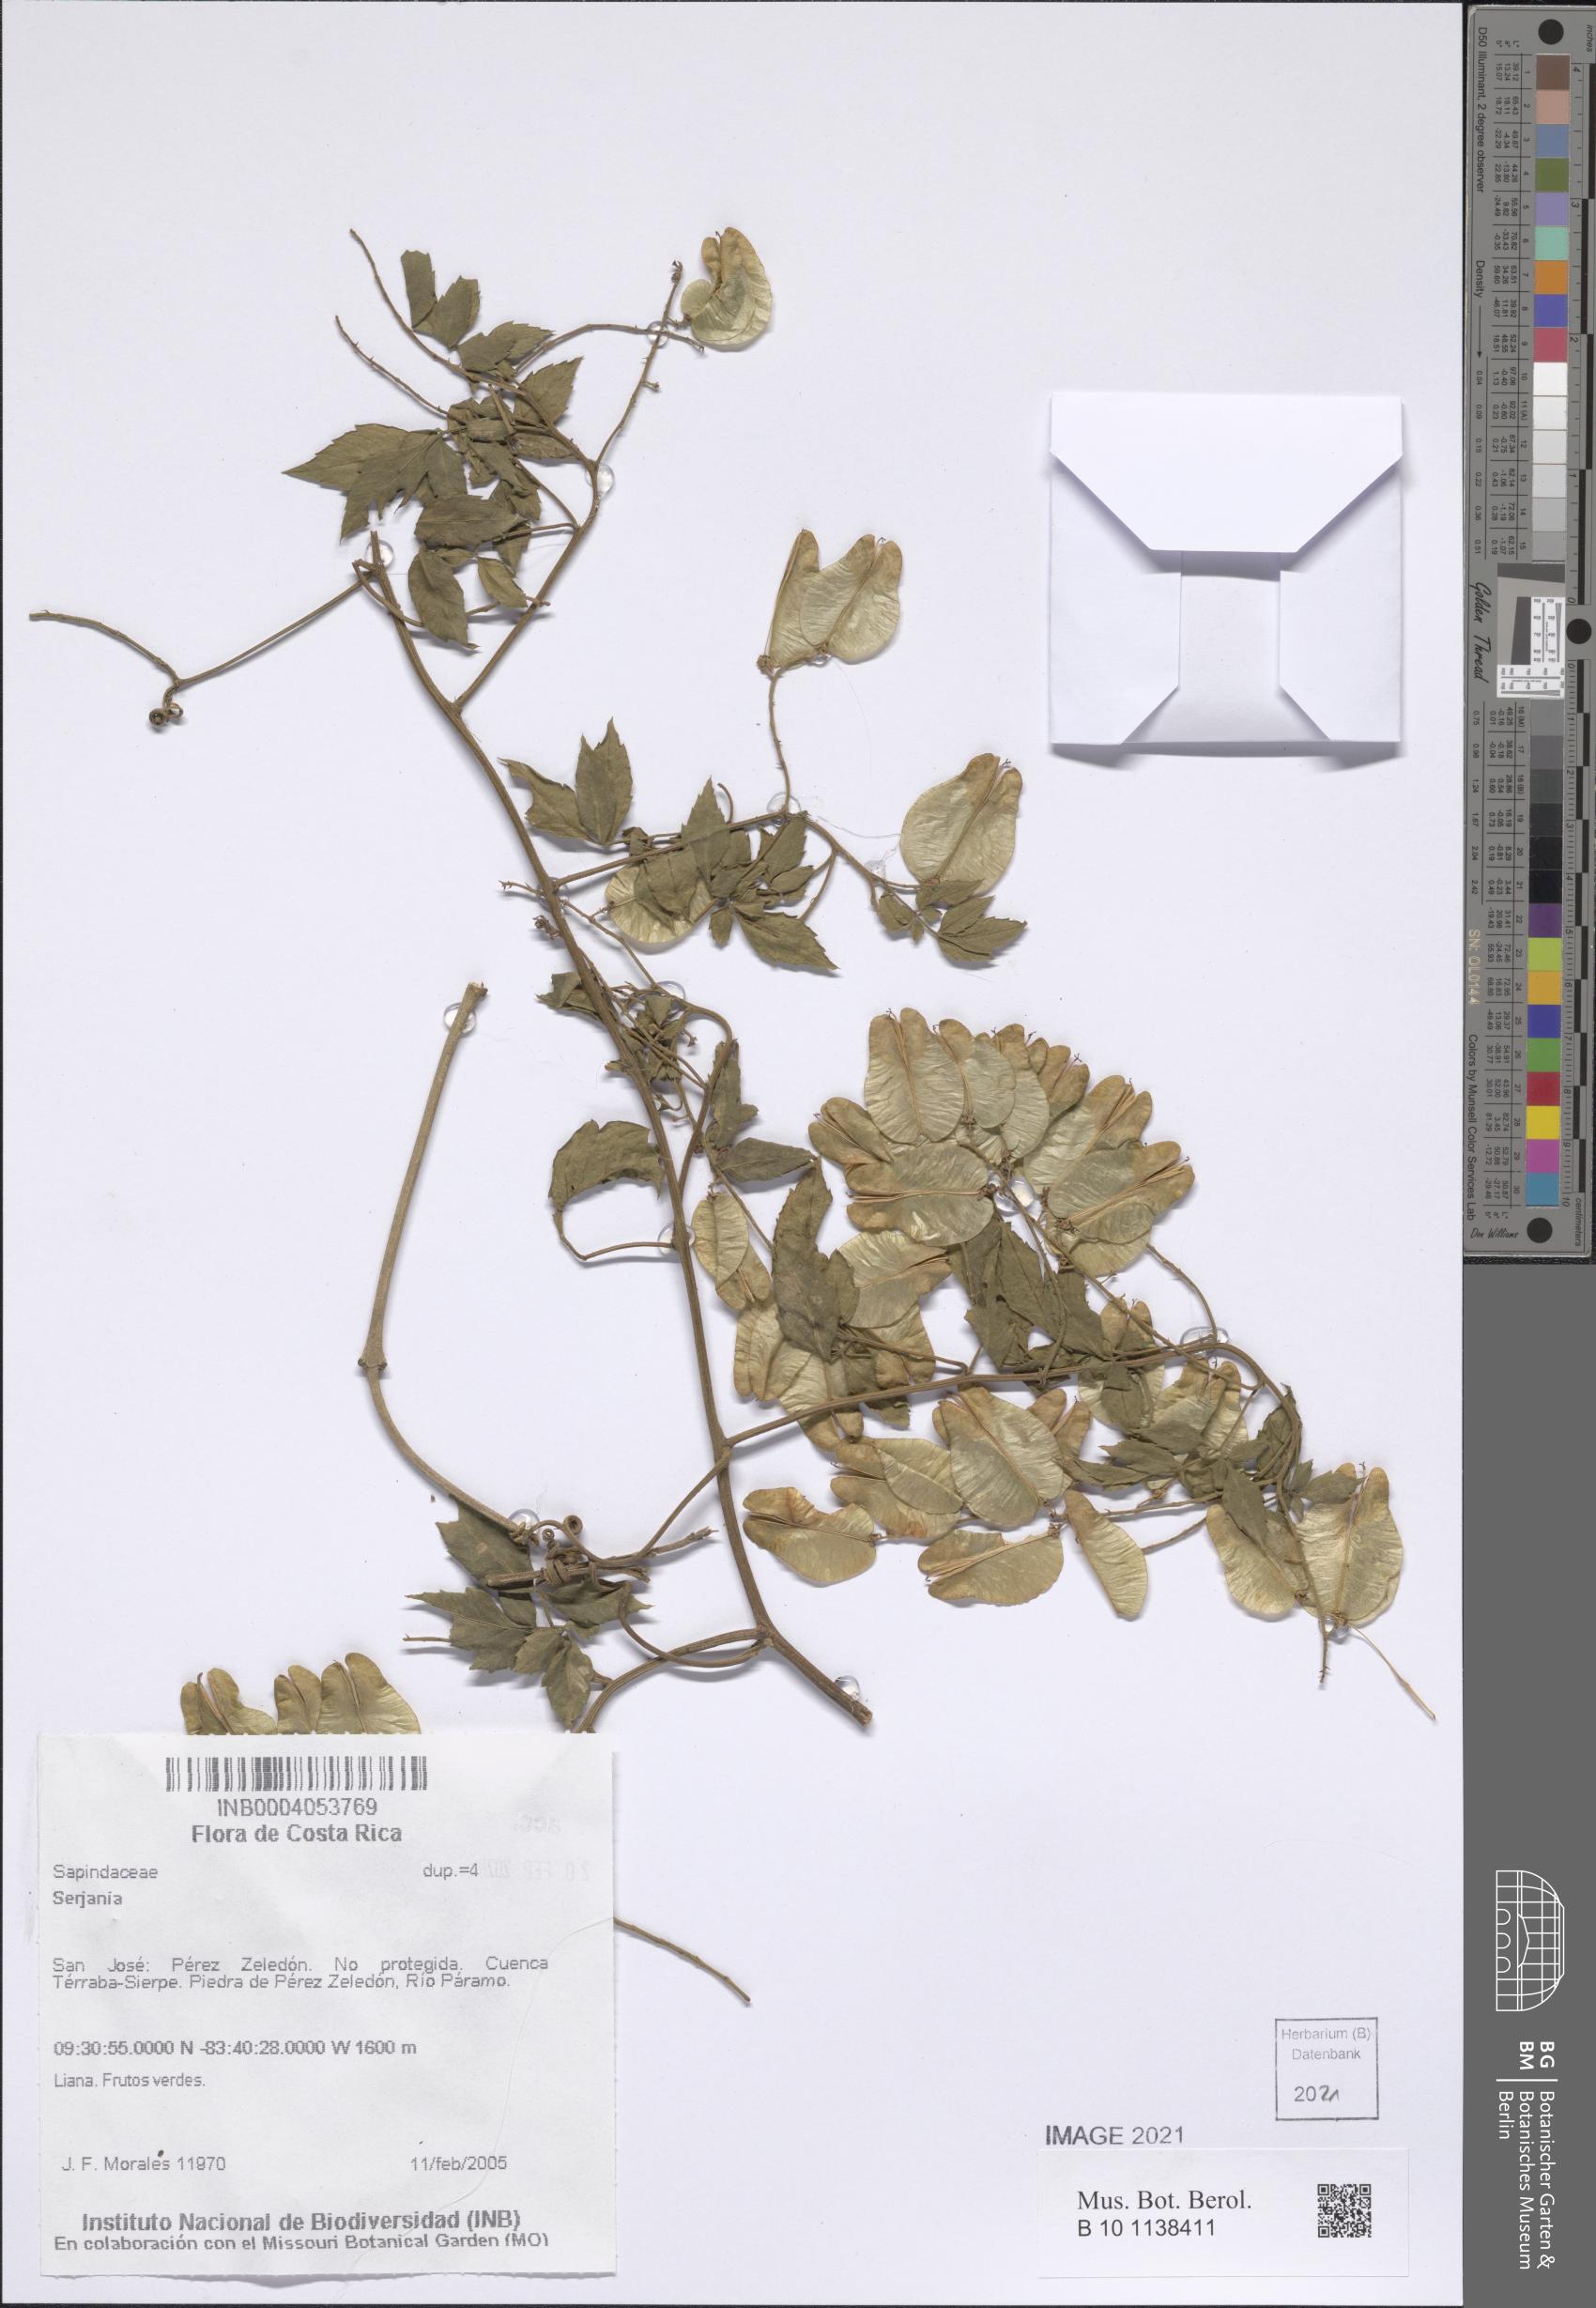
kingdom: Plantae
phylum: Tracheophyta
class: Magnoliopsida
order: Sapindales
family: Sapindaceae
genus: Serjania
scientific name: Serjania
